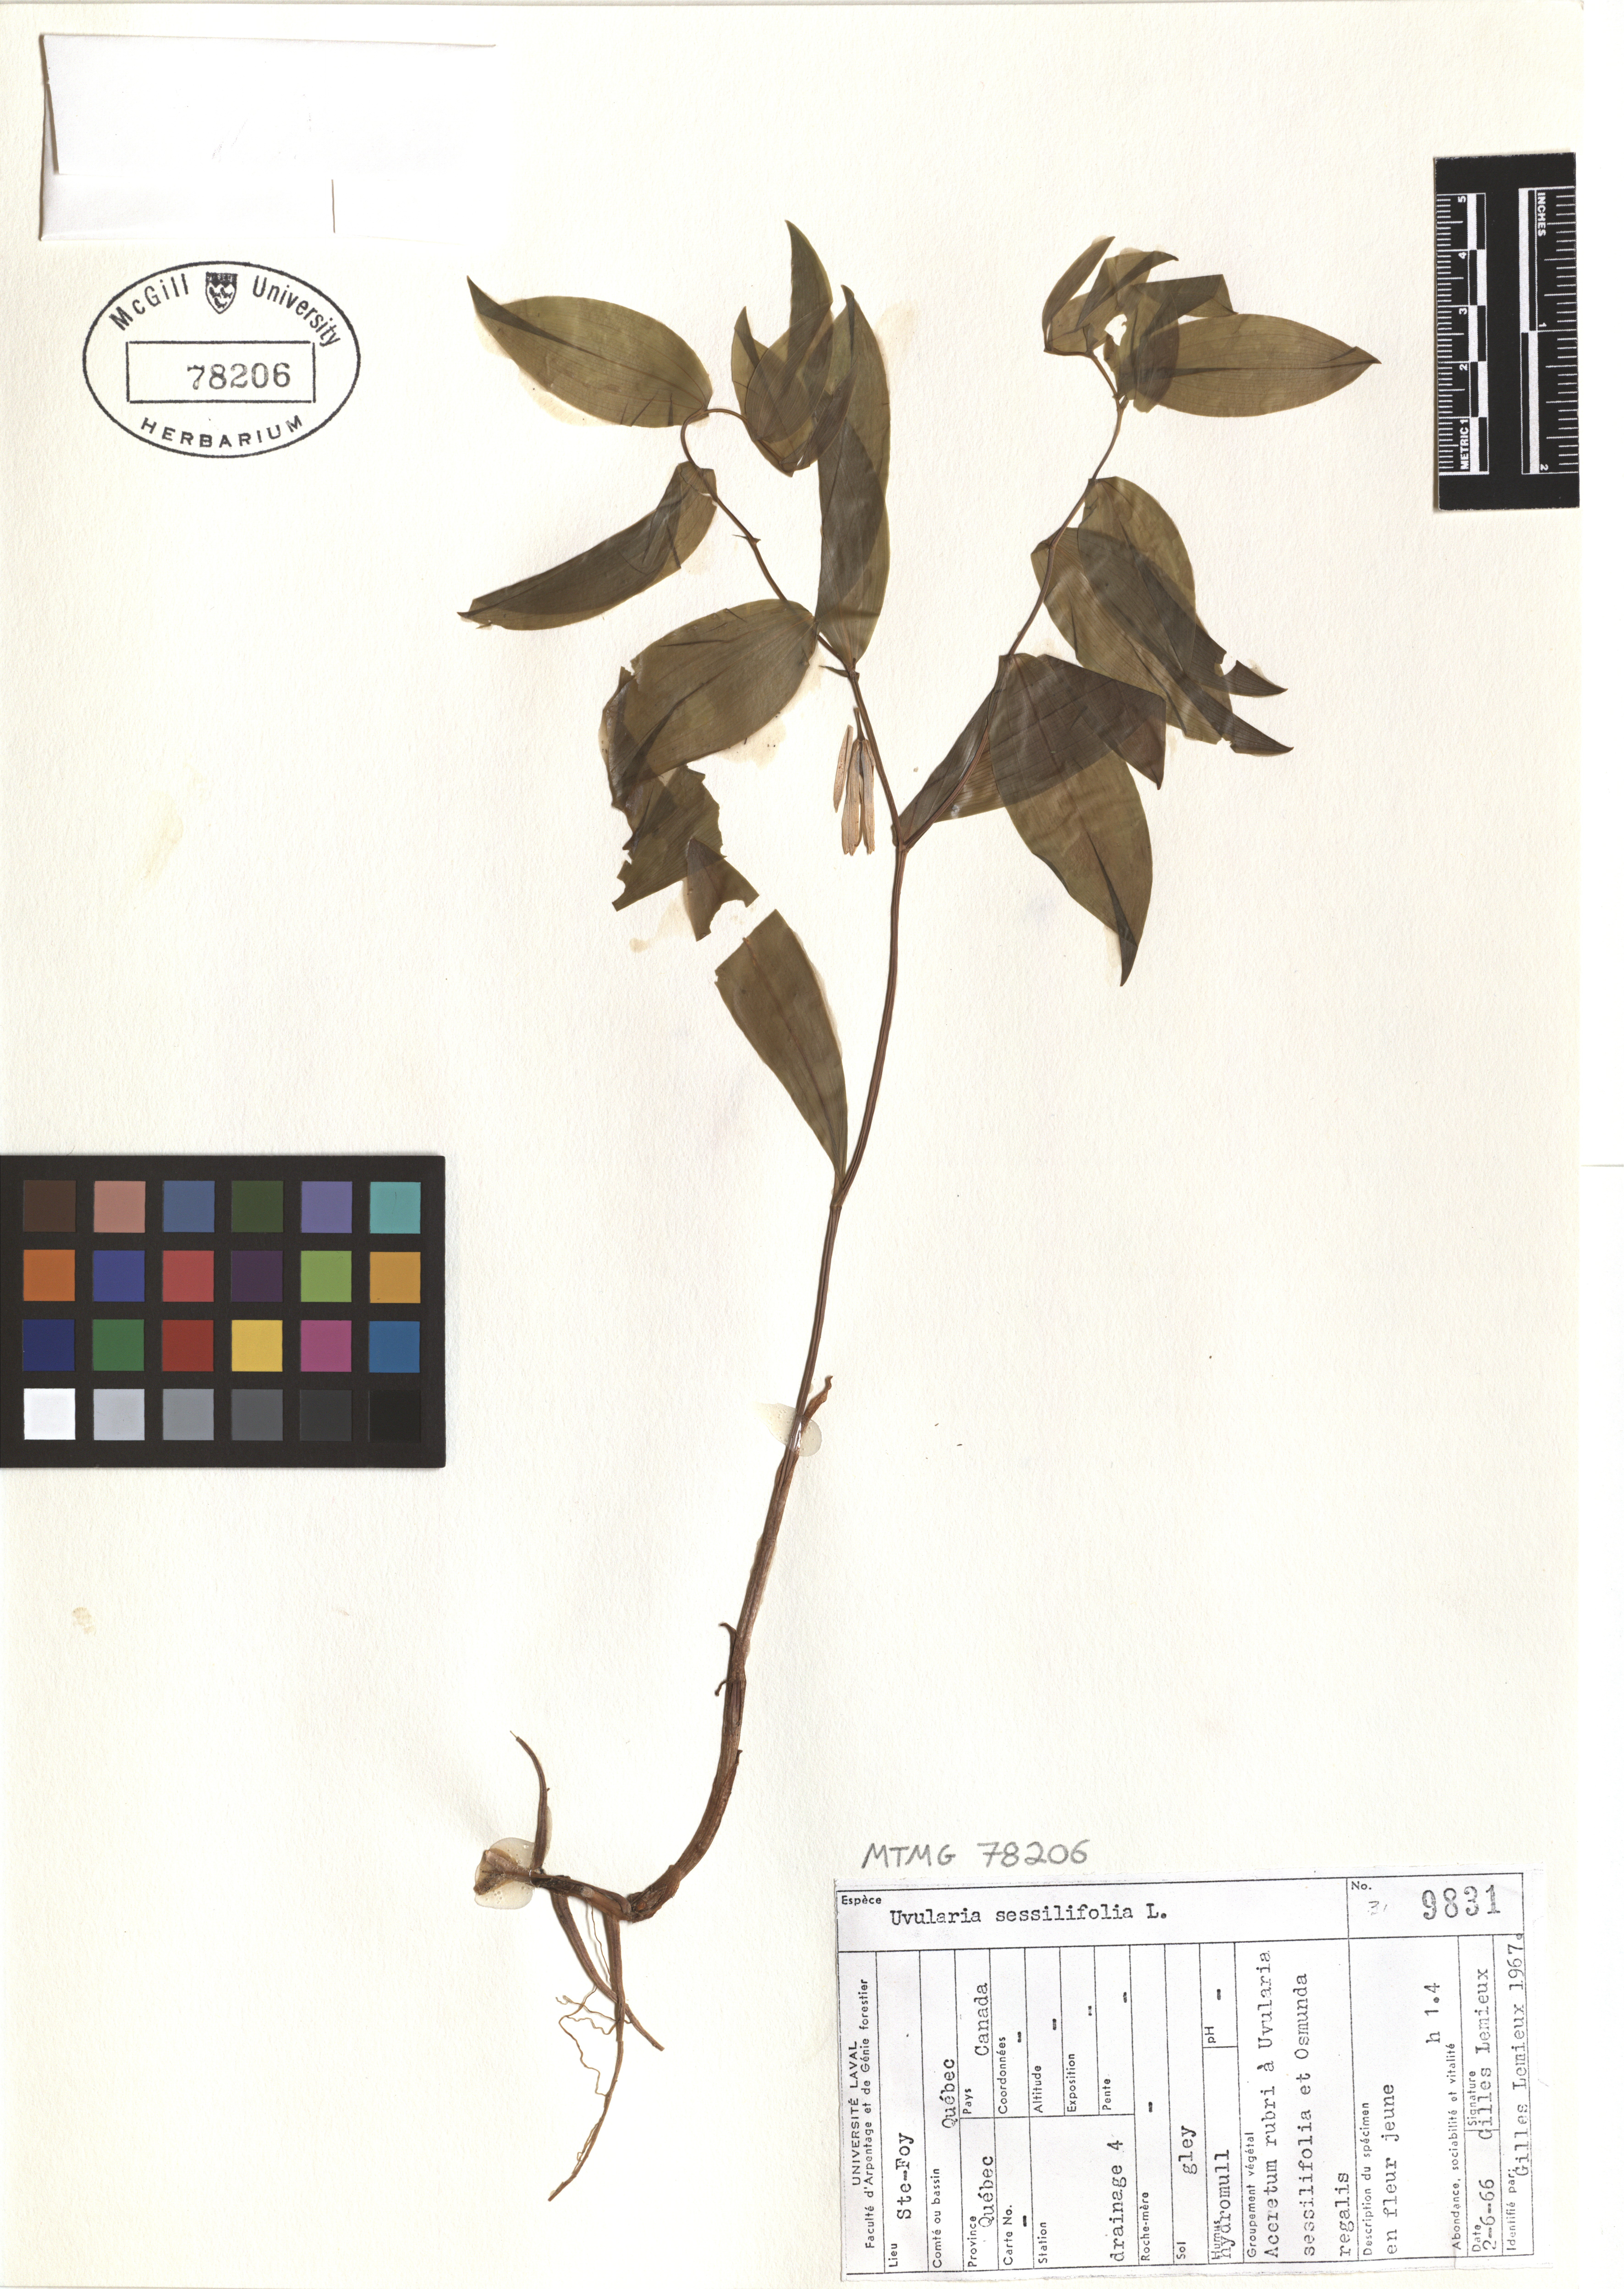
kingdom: Plantae
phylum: Tracheophyta
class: Liliopsida
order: Liliales
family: Colchicaceae
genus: Uvularia
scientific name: Uvularia sessilifolia
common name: Straw-lily
